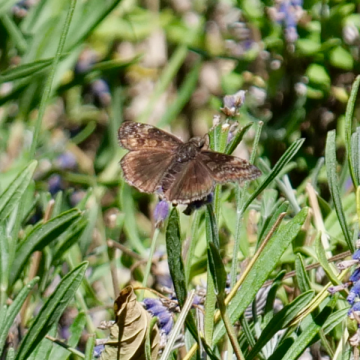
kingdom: Animalia
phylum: Arthropoda
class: Insecta
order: Lepidoptera
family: Hesperiidae
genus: Gesta
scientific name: Gesta
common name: Wild Indigo Duskywing
